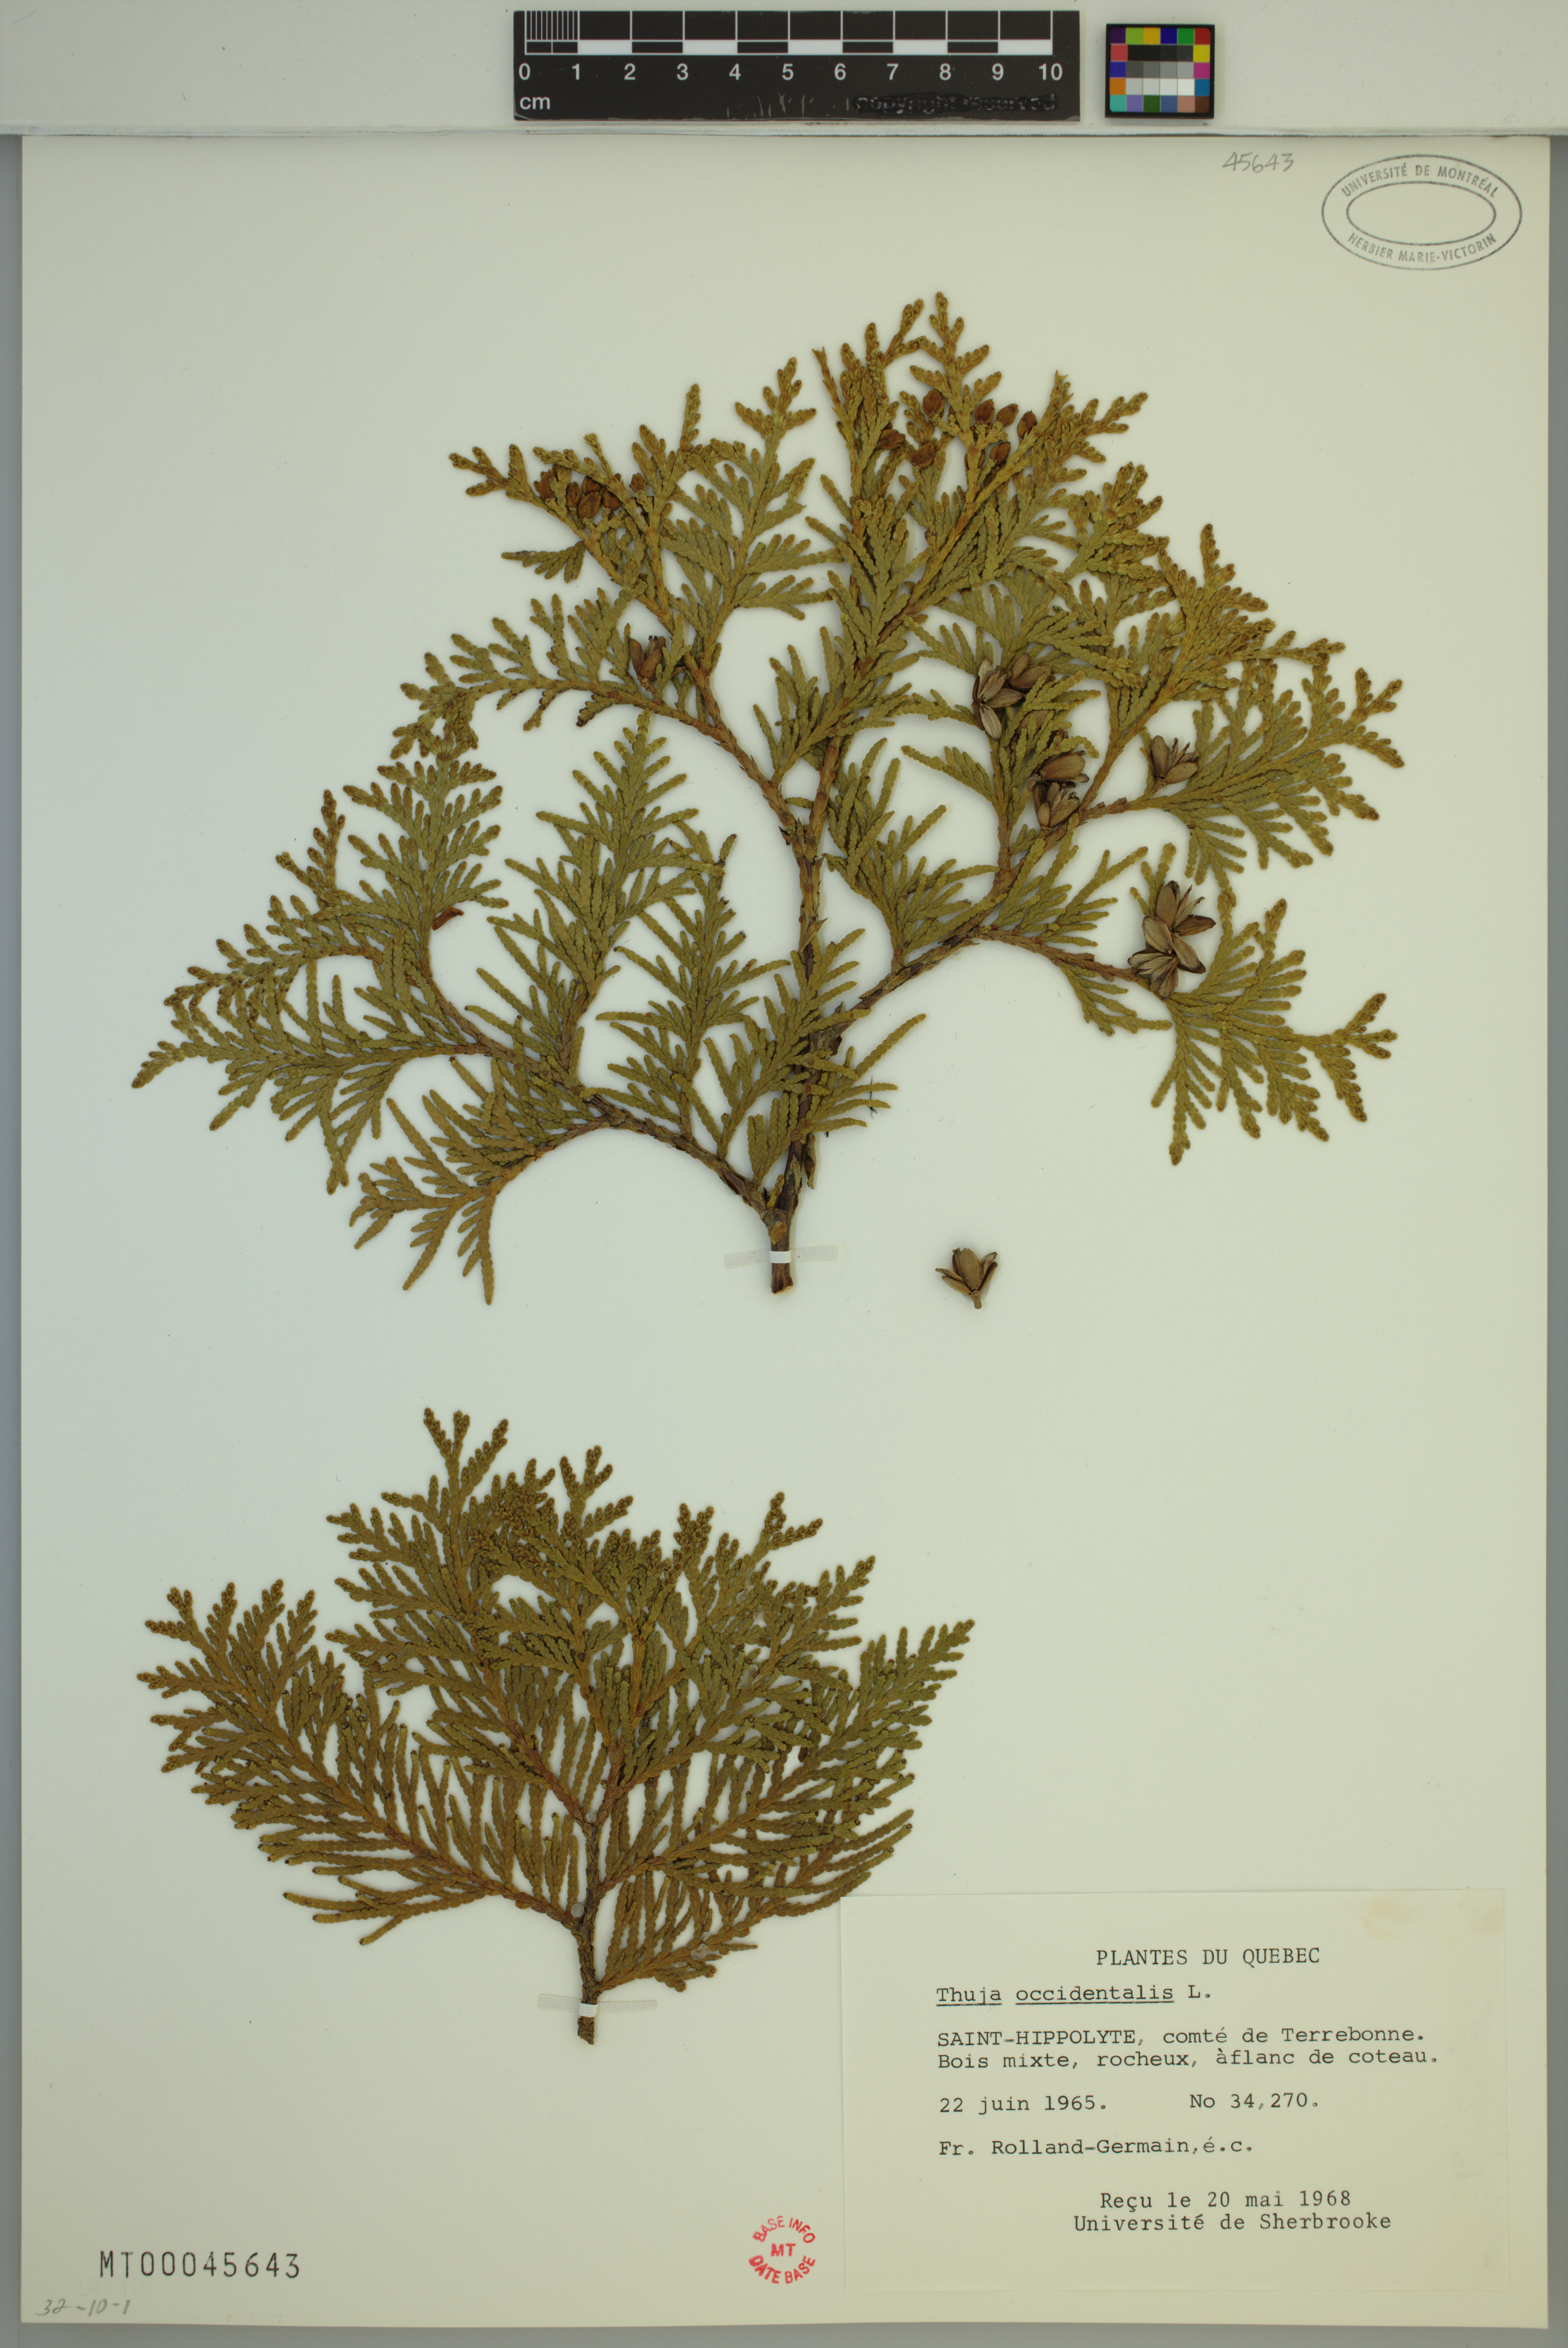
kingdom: Plantae
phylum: Tracheophyta
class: Pinopsida
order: Pinales
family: Cupressaceae
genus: Thuja
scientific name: Thuja occidentalis
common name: Northern white-cedar
